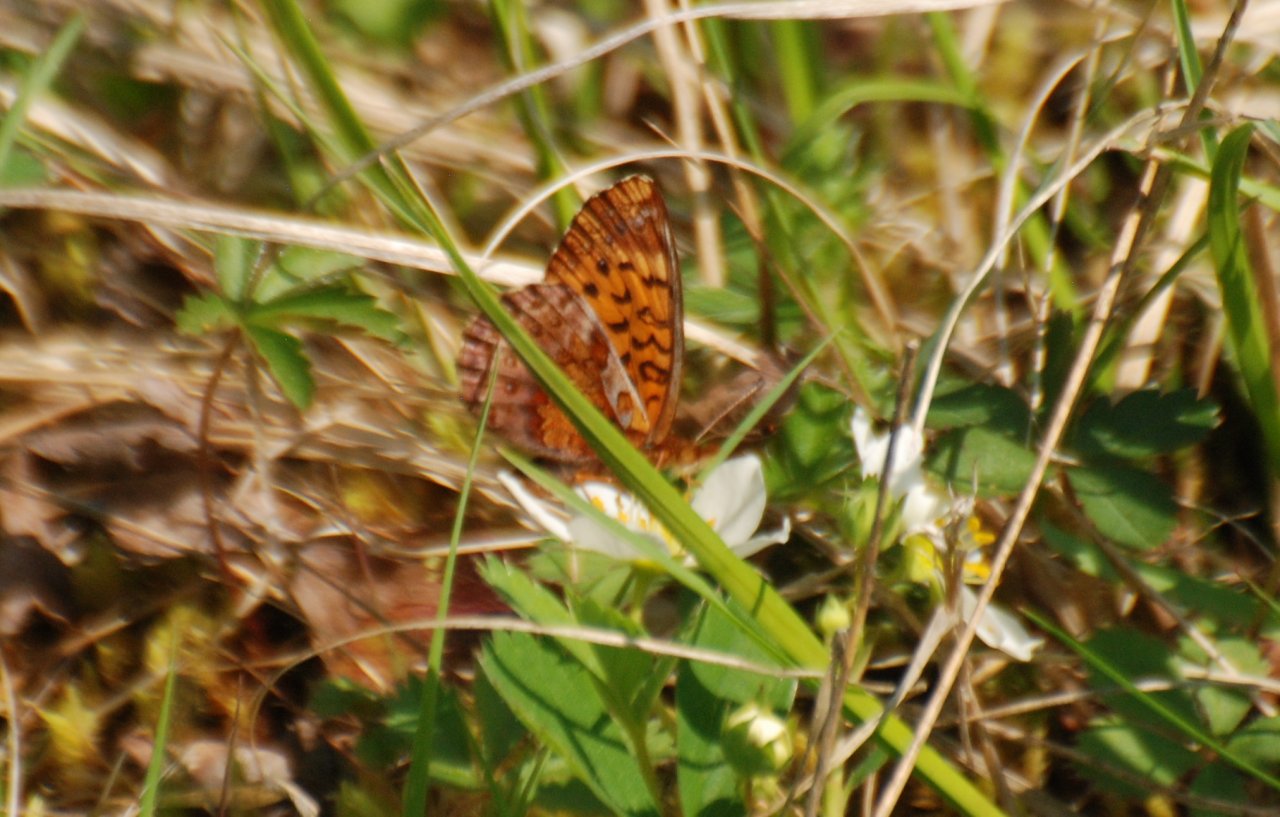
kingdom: Animalia
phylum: Arthropoda
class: Insecta
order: Lepidoptera
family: Nymphalidae
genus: Clossiana
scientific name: Clossiana toddi
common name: Meadow Fritillary
